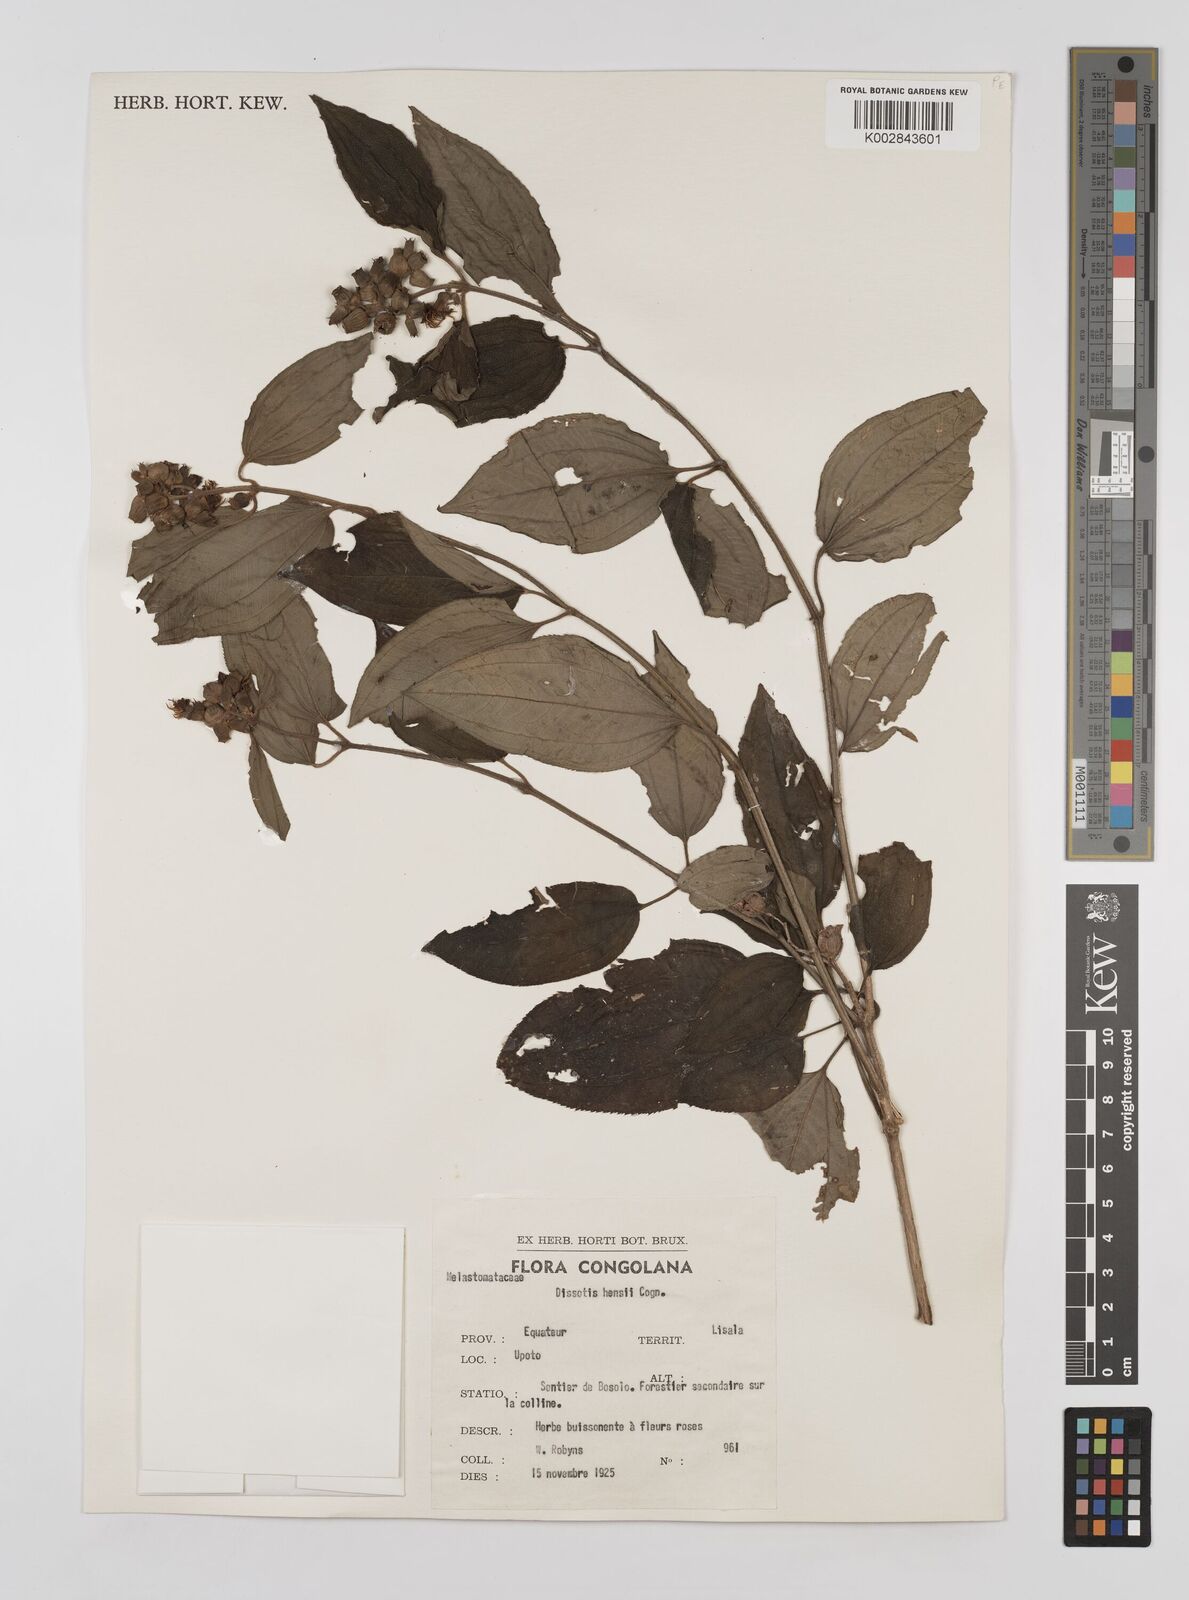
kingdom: Plantae
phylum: Tracheophyta
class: Magnoliopsida
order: Myrtales
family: Melastomataceae
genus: Dupineta
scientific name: Dupineta hensii
